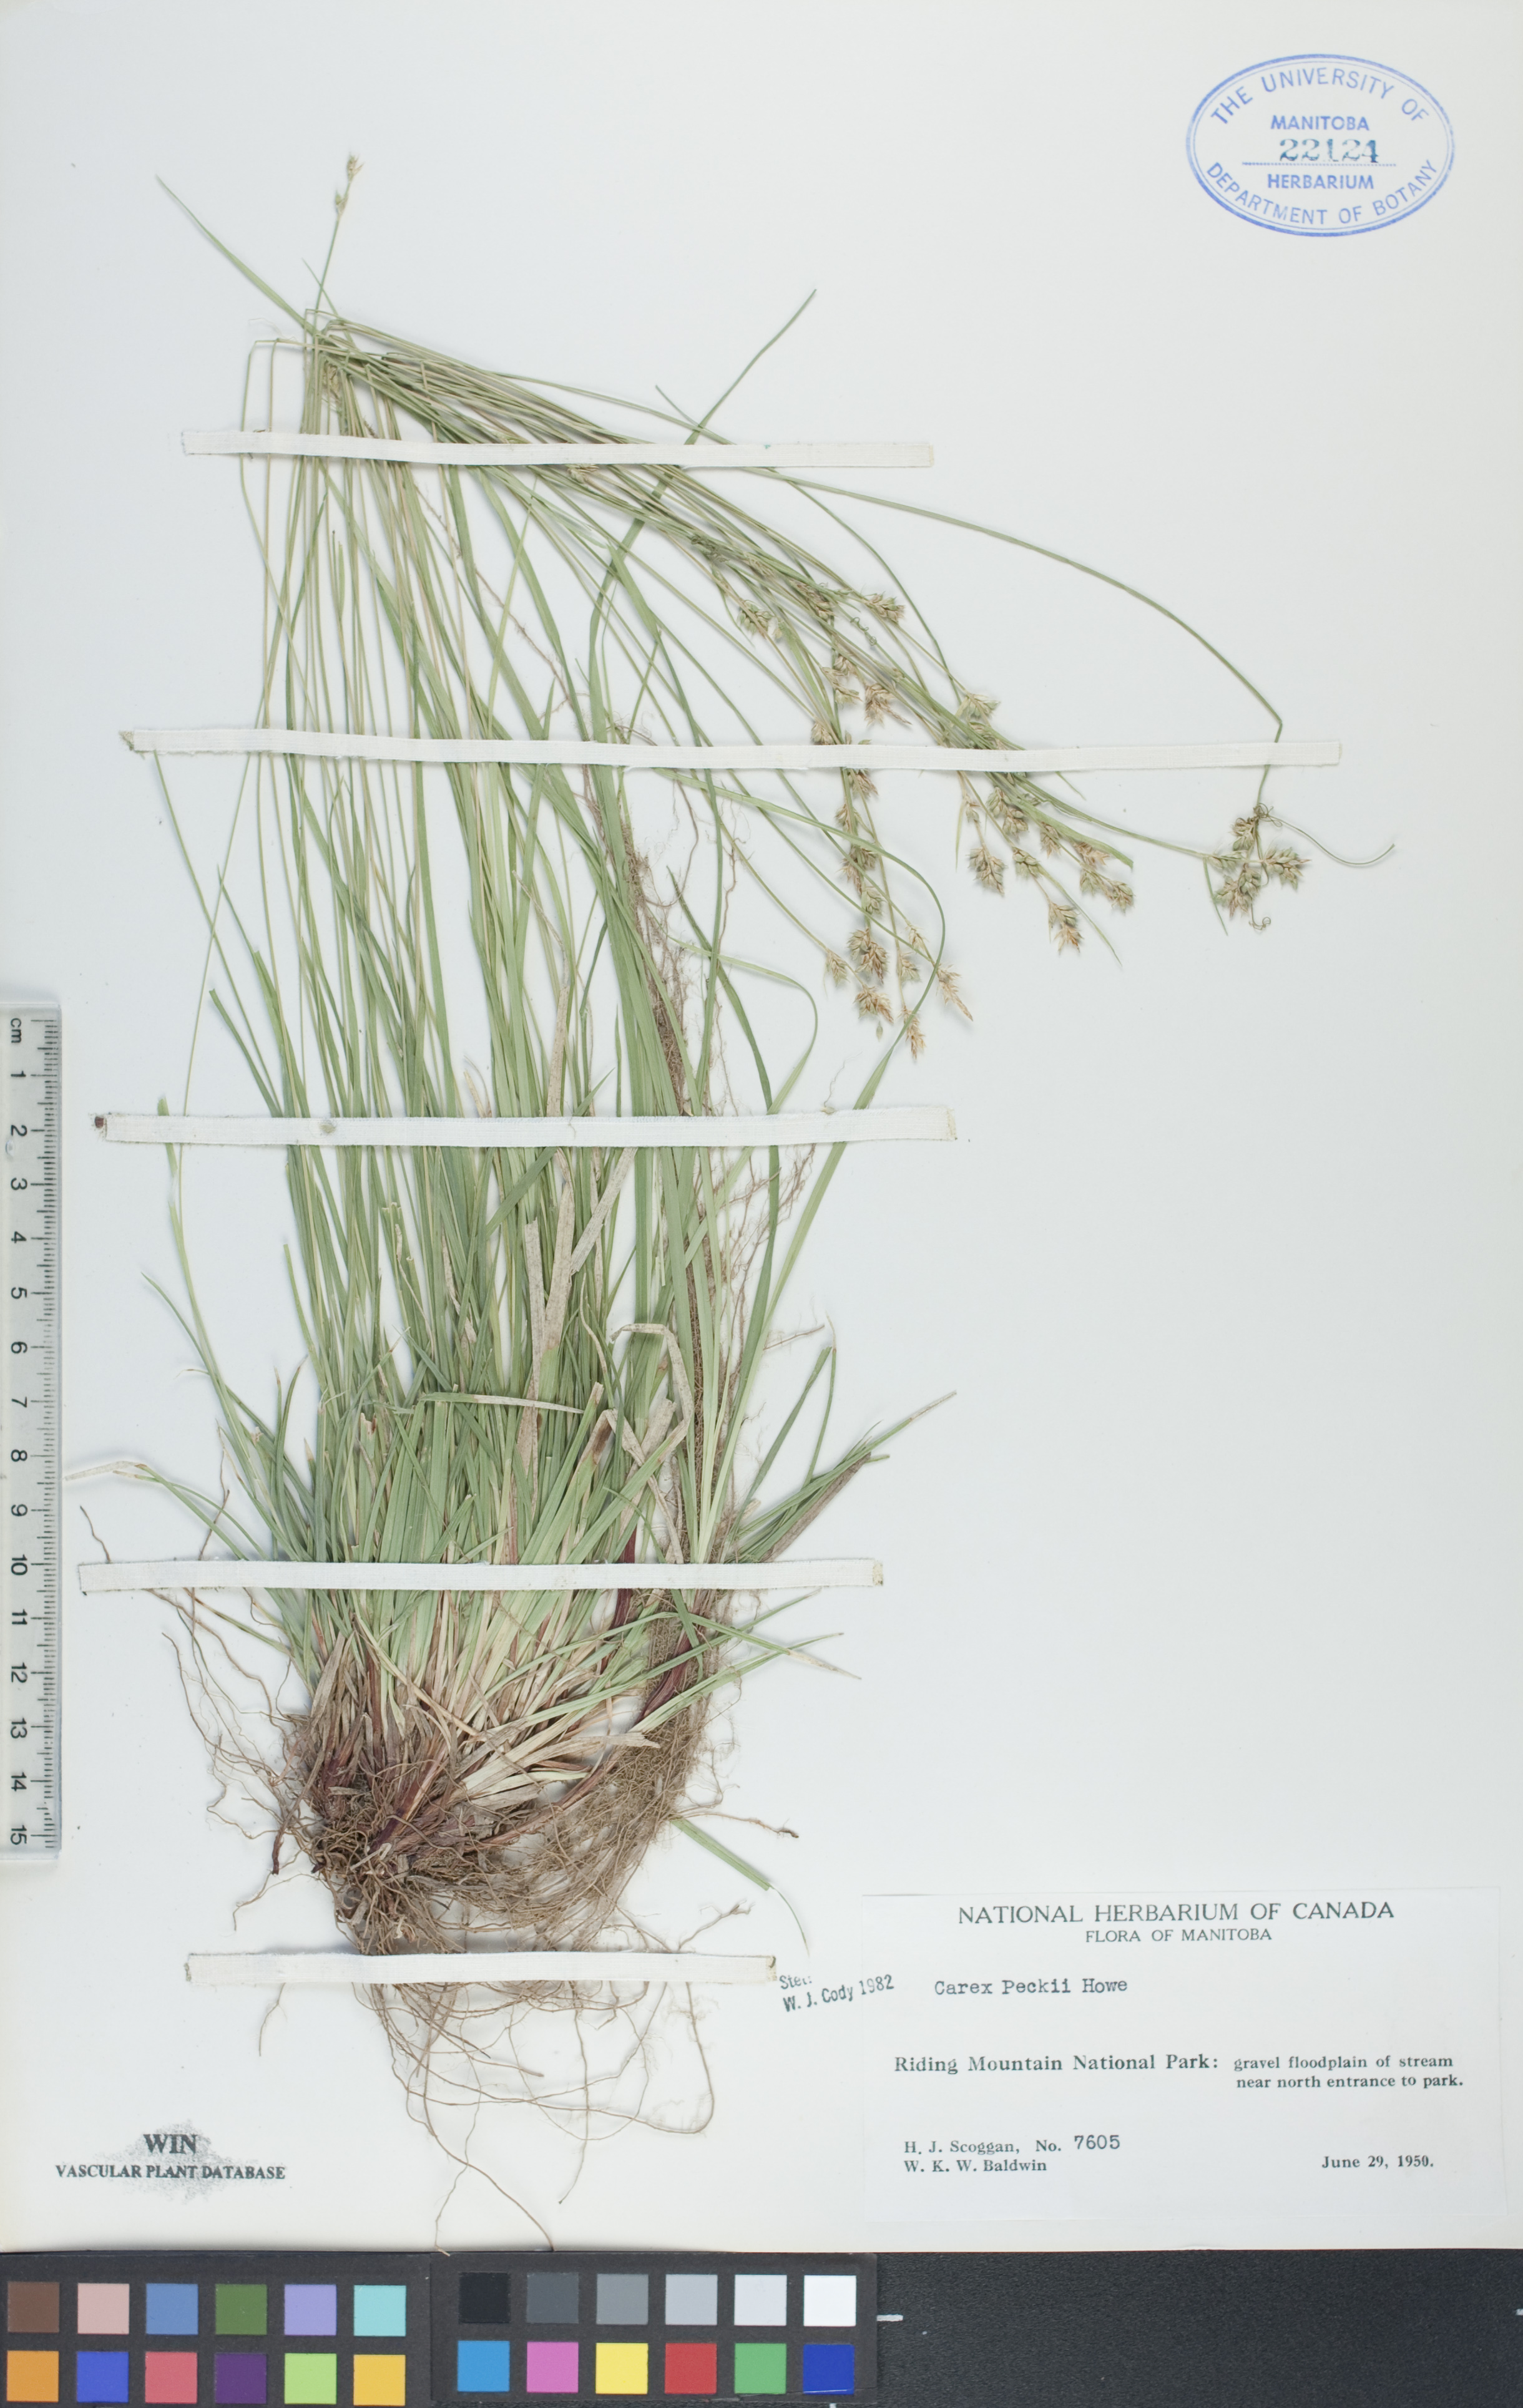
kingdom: Plantae
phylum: Tracheophyta
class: Liliopsida
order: Poales
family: Cyperaceae
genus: Carex
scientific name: Carex peckii
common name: Peck's oak sedge
